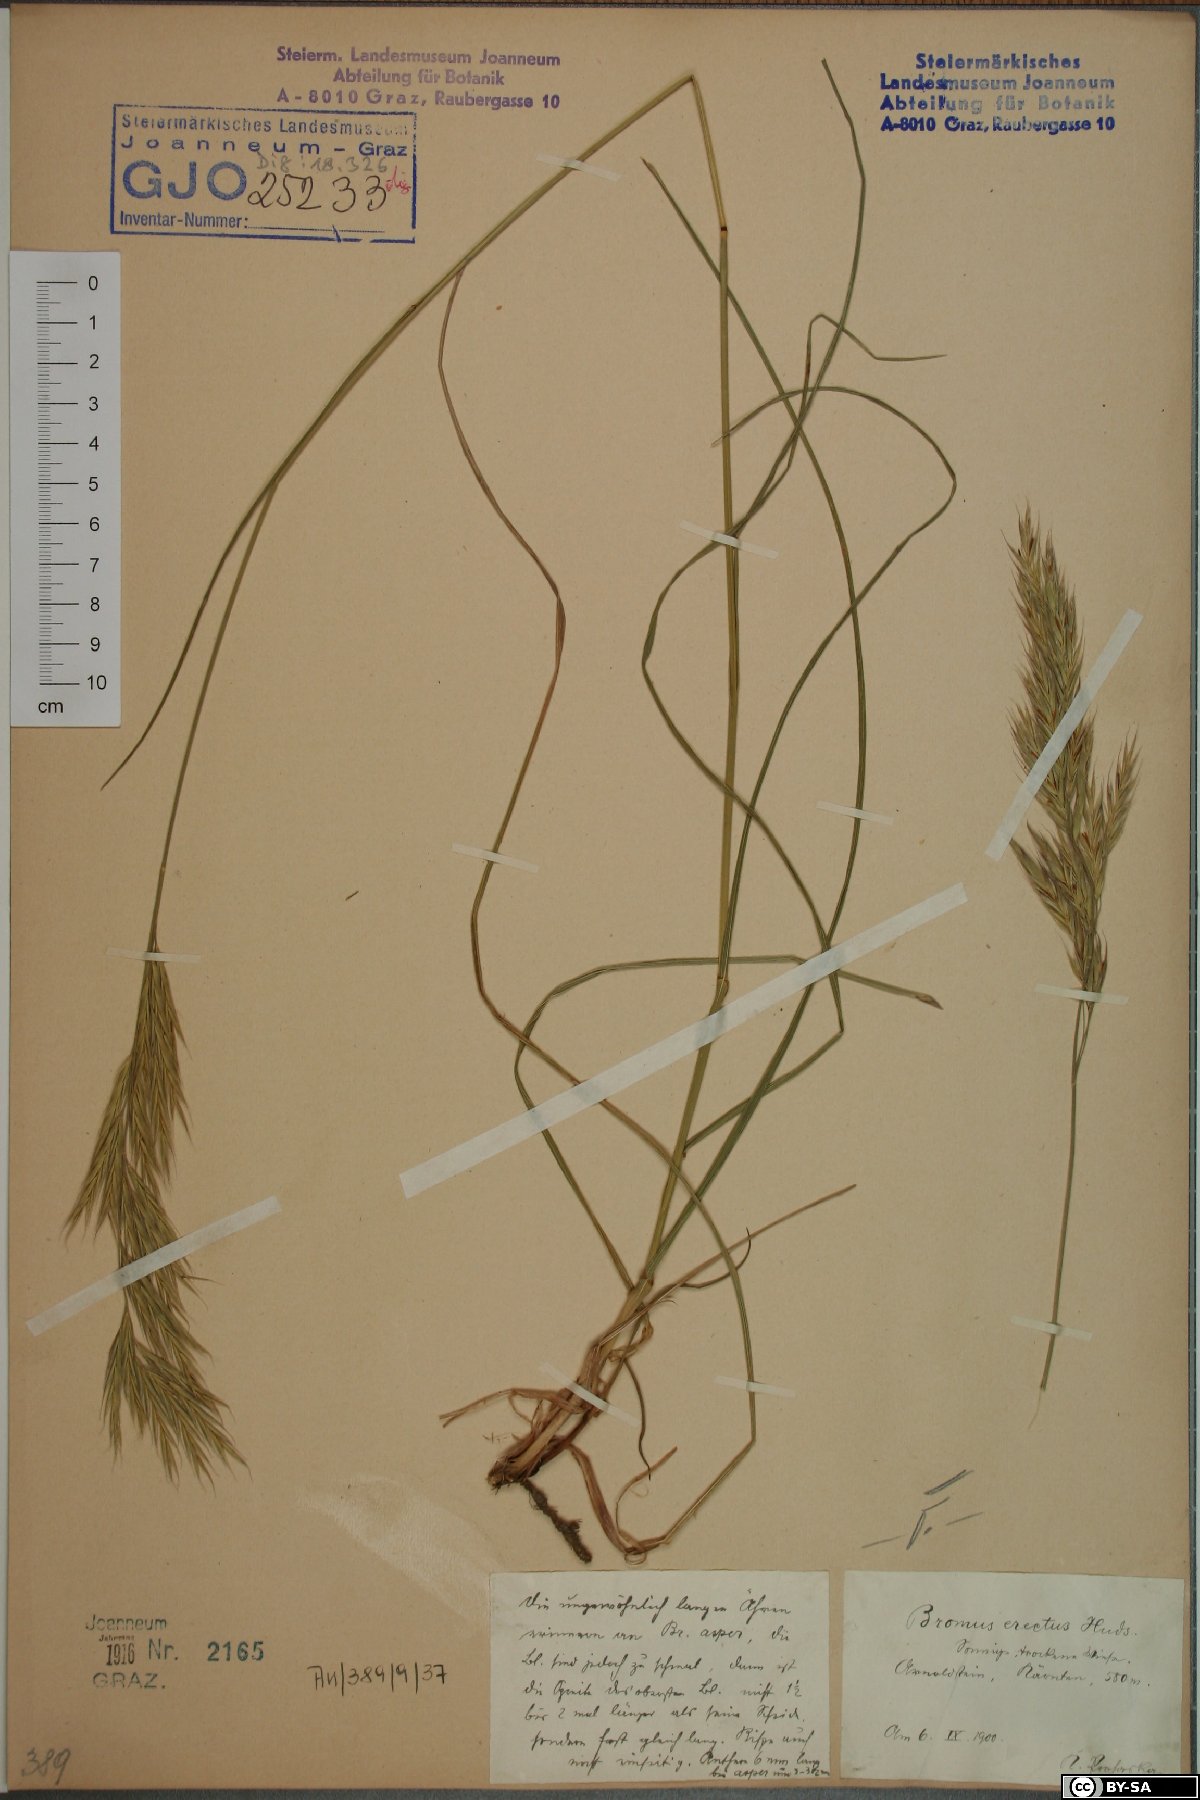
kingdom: Plantae
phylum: Tracheophyta
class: Liliopsida
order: Poales
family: Poaceae
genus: Bromus
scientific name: Bromus erectus
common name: Erect brome
